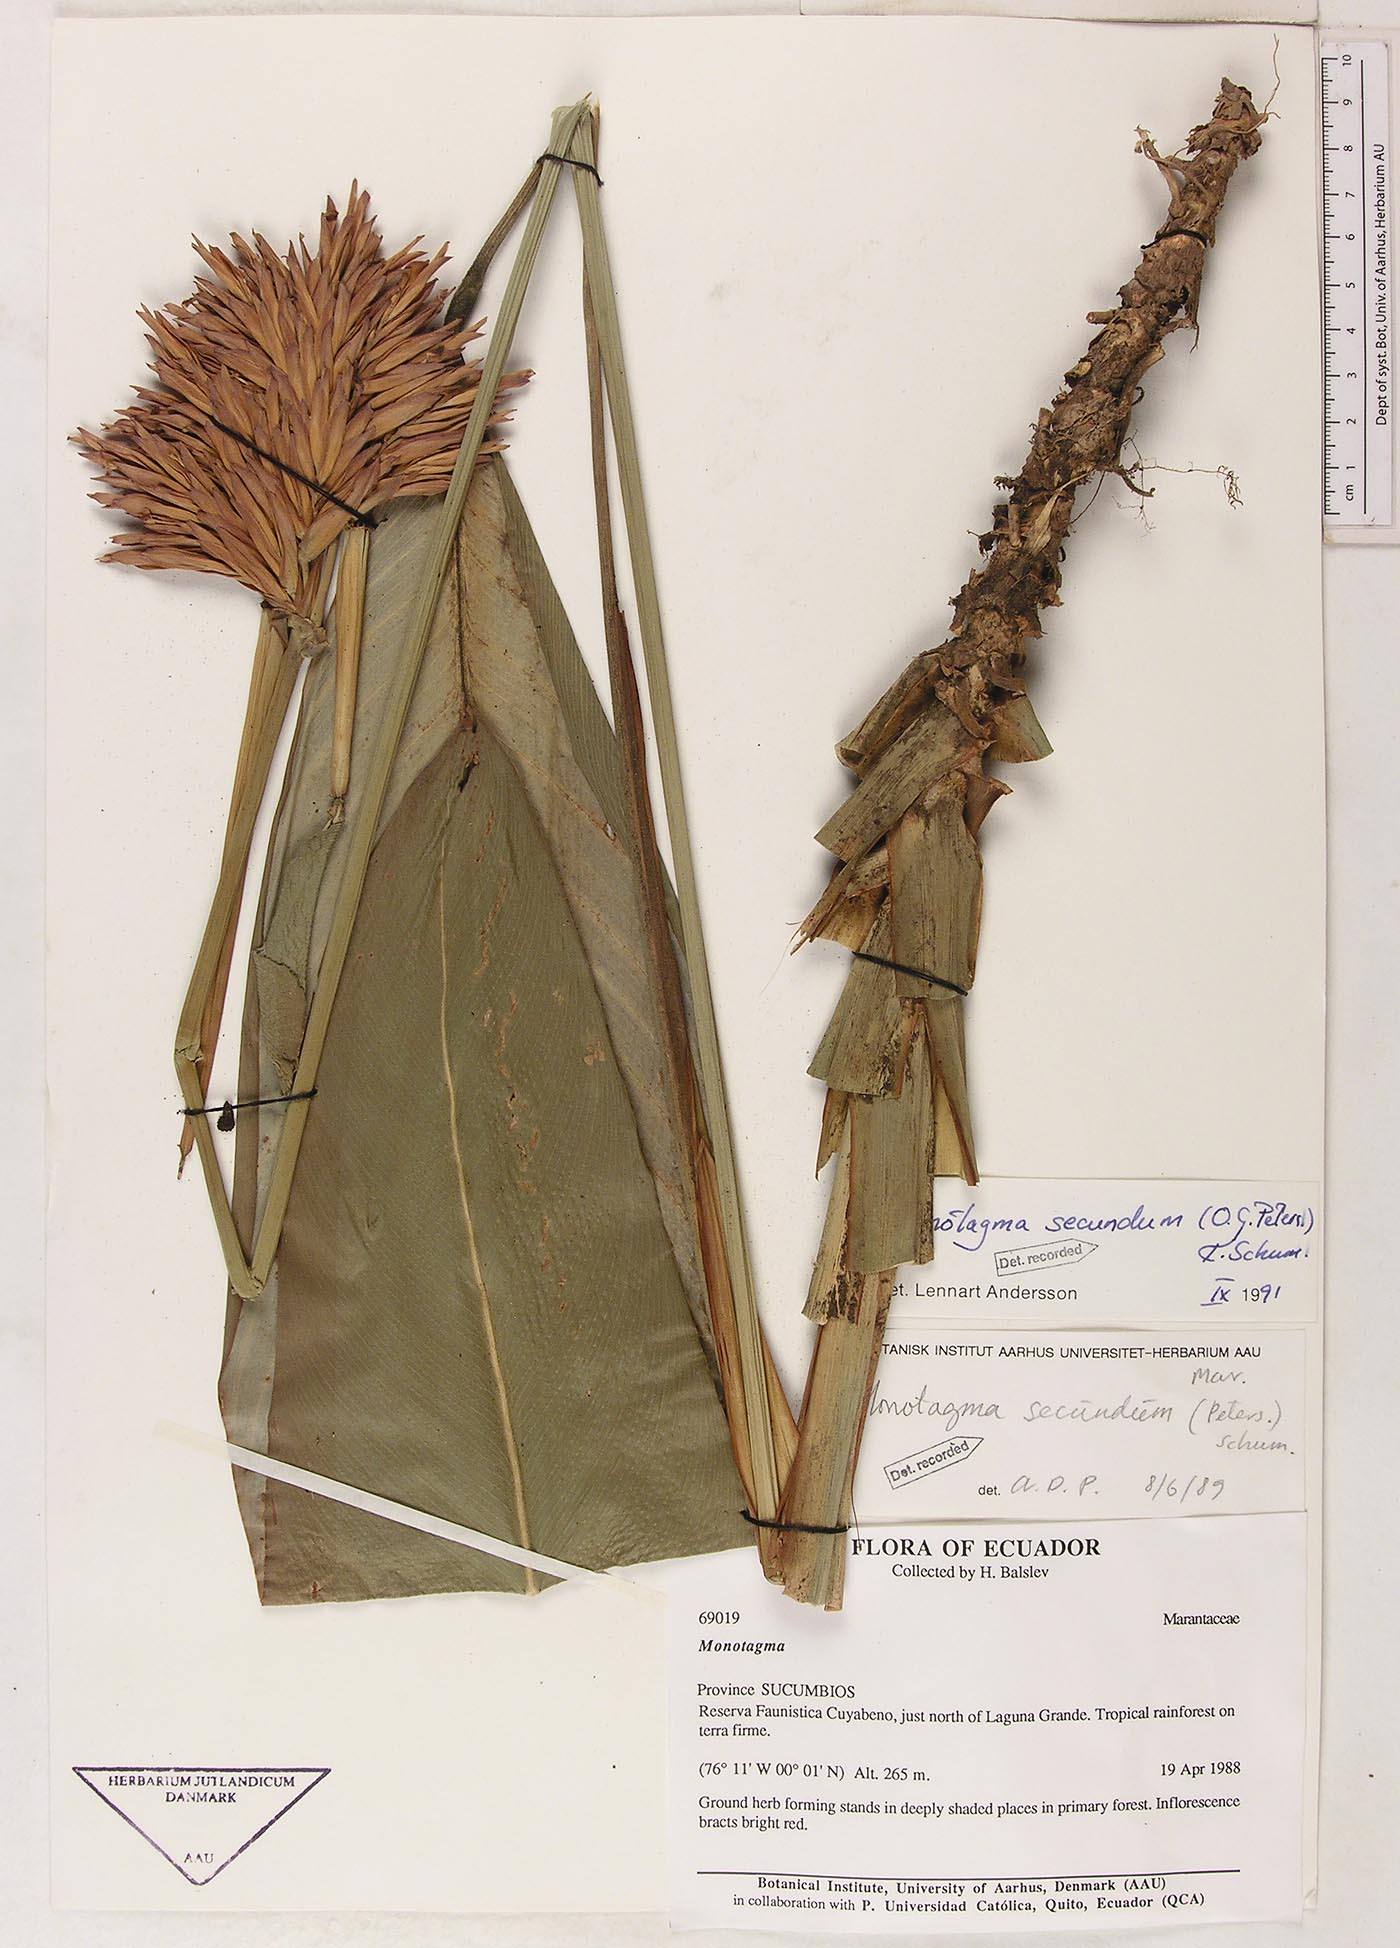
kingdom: Plantae
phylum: Tracheophyta
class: Liliopsida
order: Zingiberales
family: Marantaceae
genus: Monotagma
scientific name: Monotagma secundum
